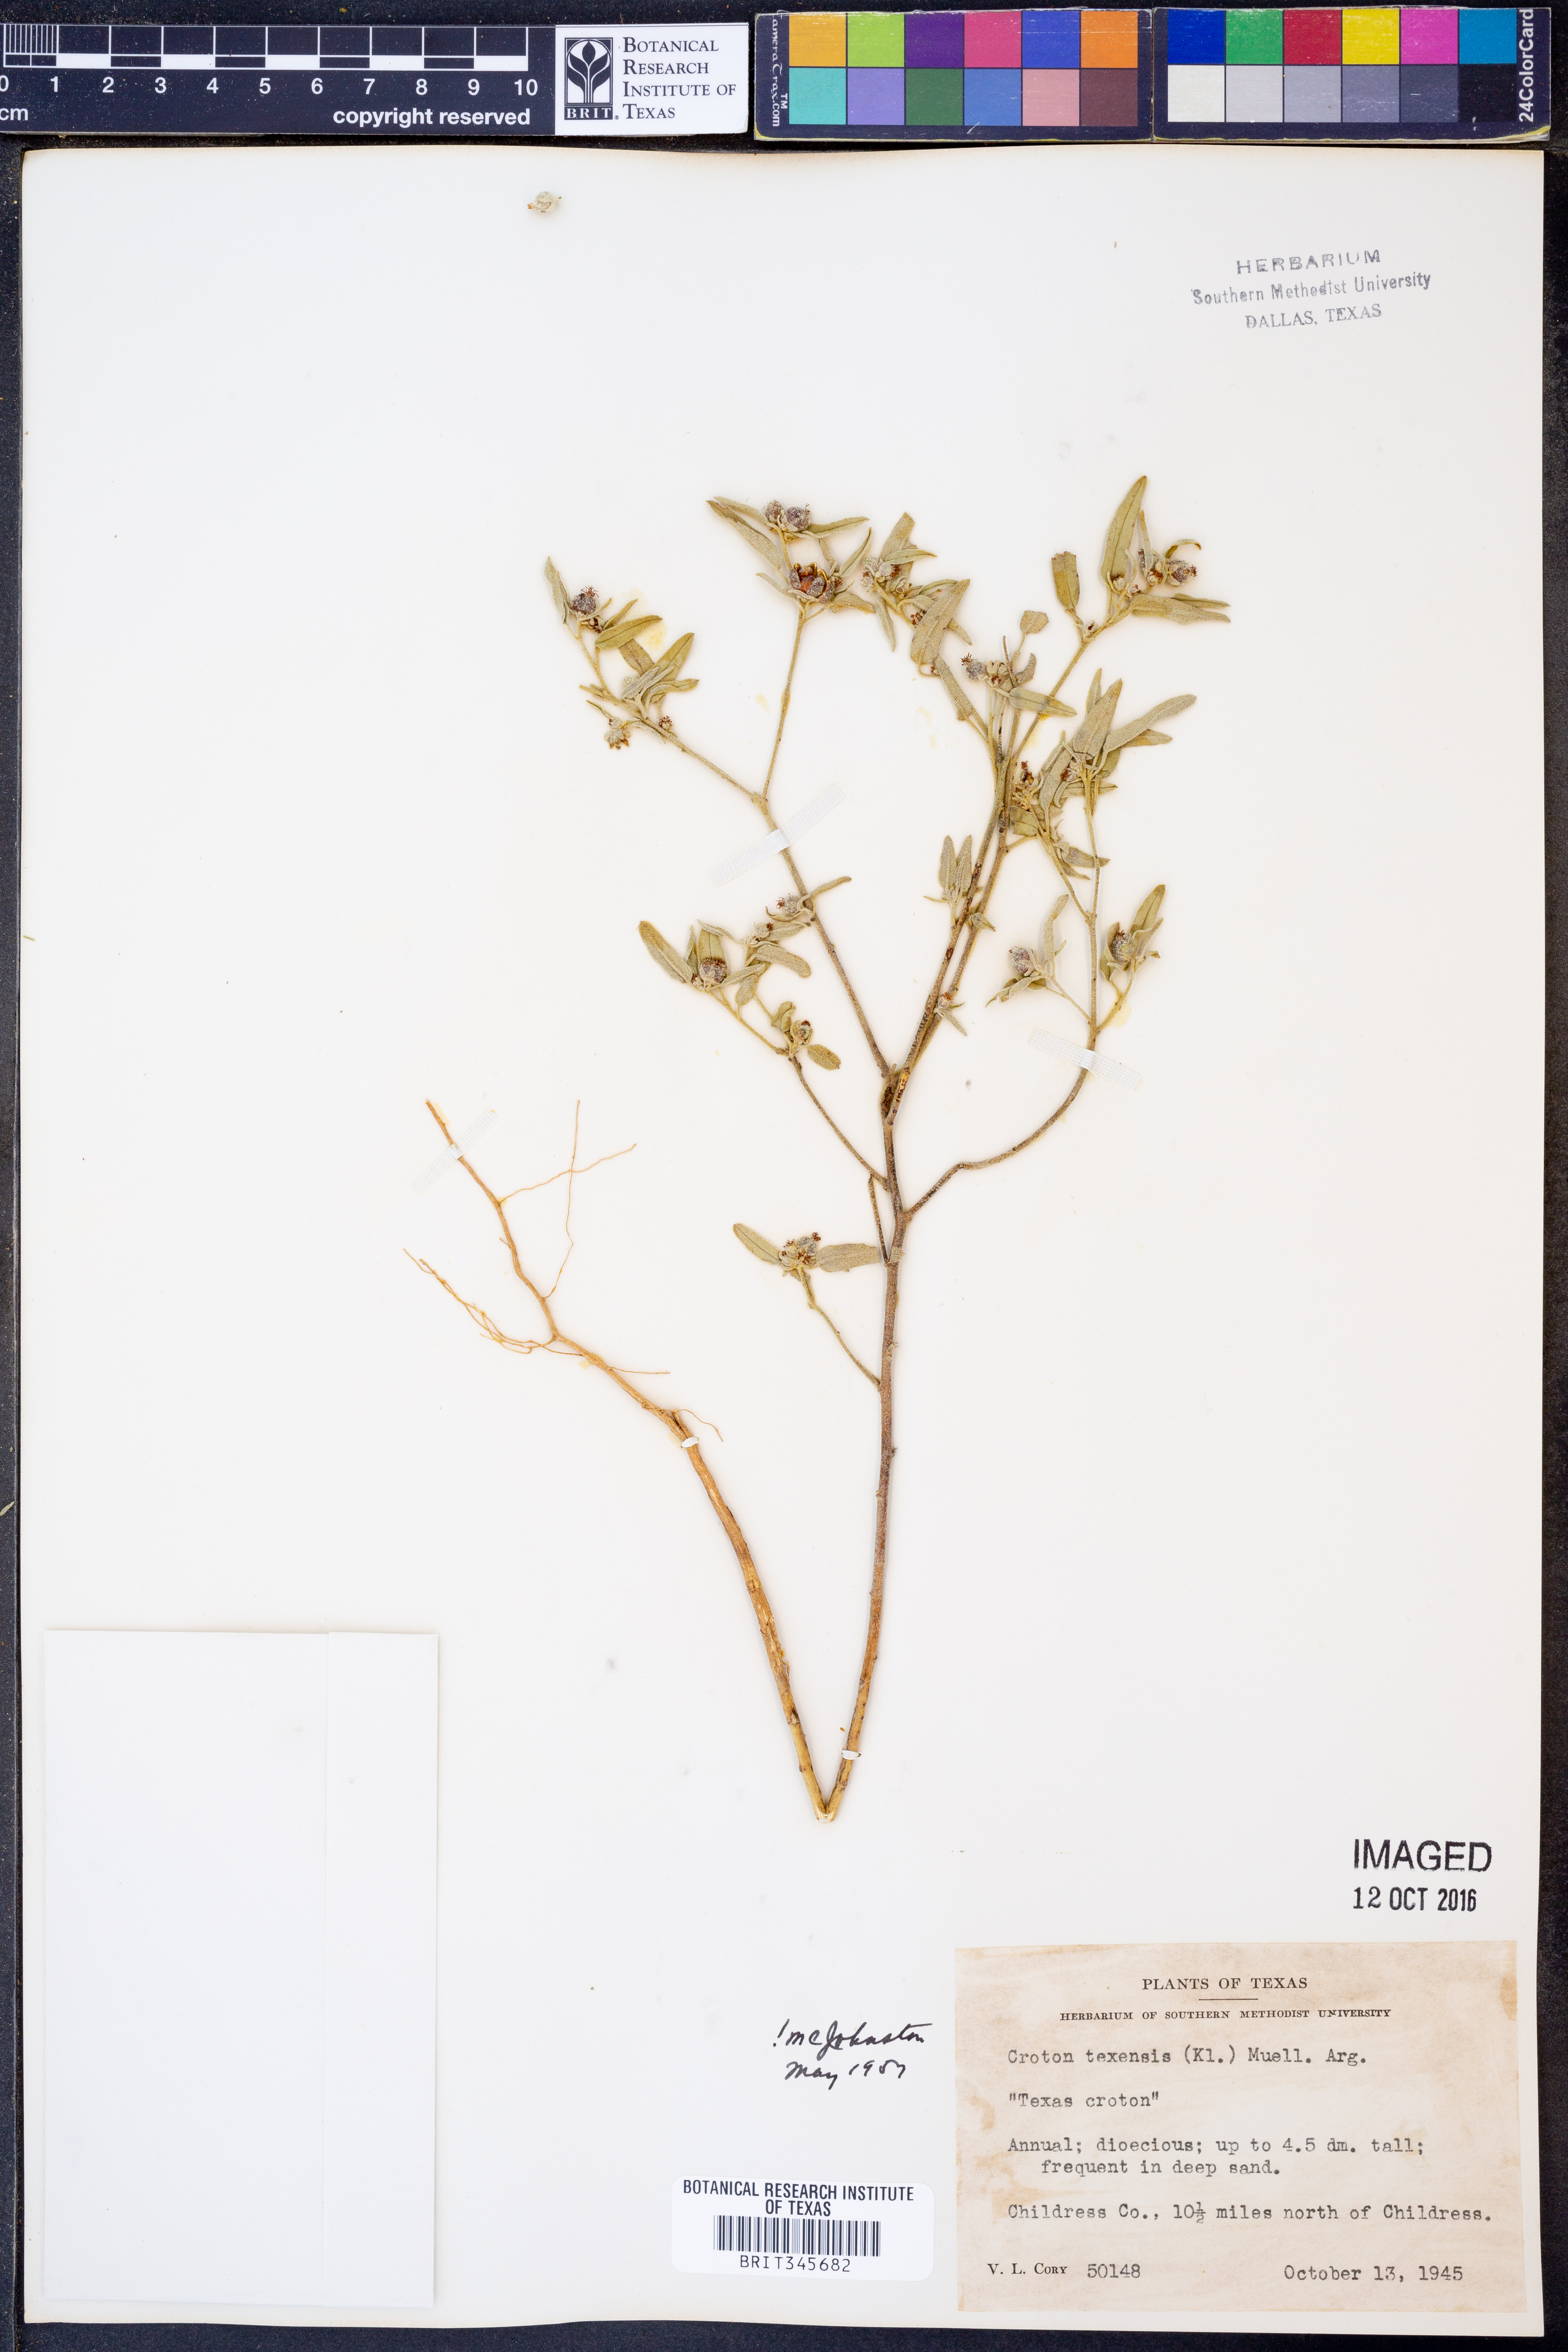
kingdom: Plantae
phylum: Tracheophyta
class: Magnoliopsida
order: Malpighiales
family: Euphorbiaceae
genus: Croton
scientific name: Croton texensis
